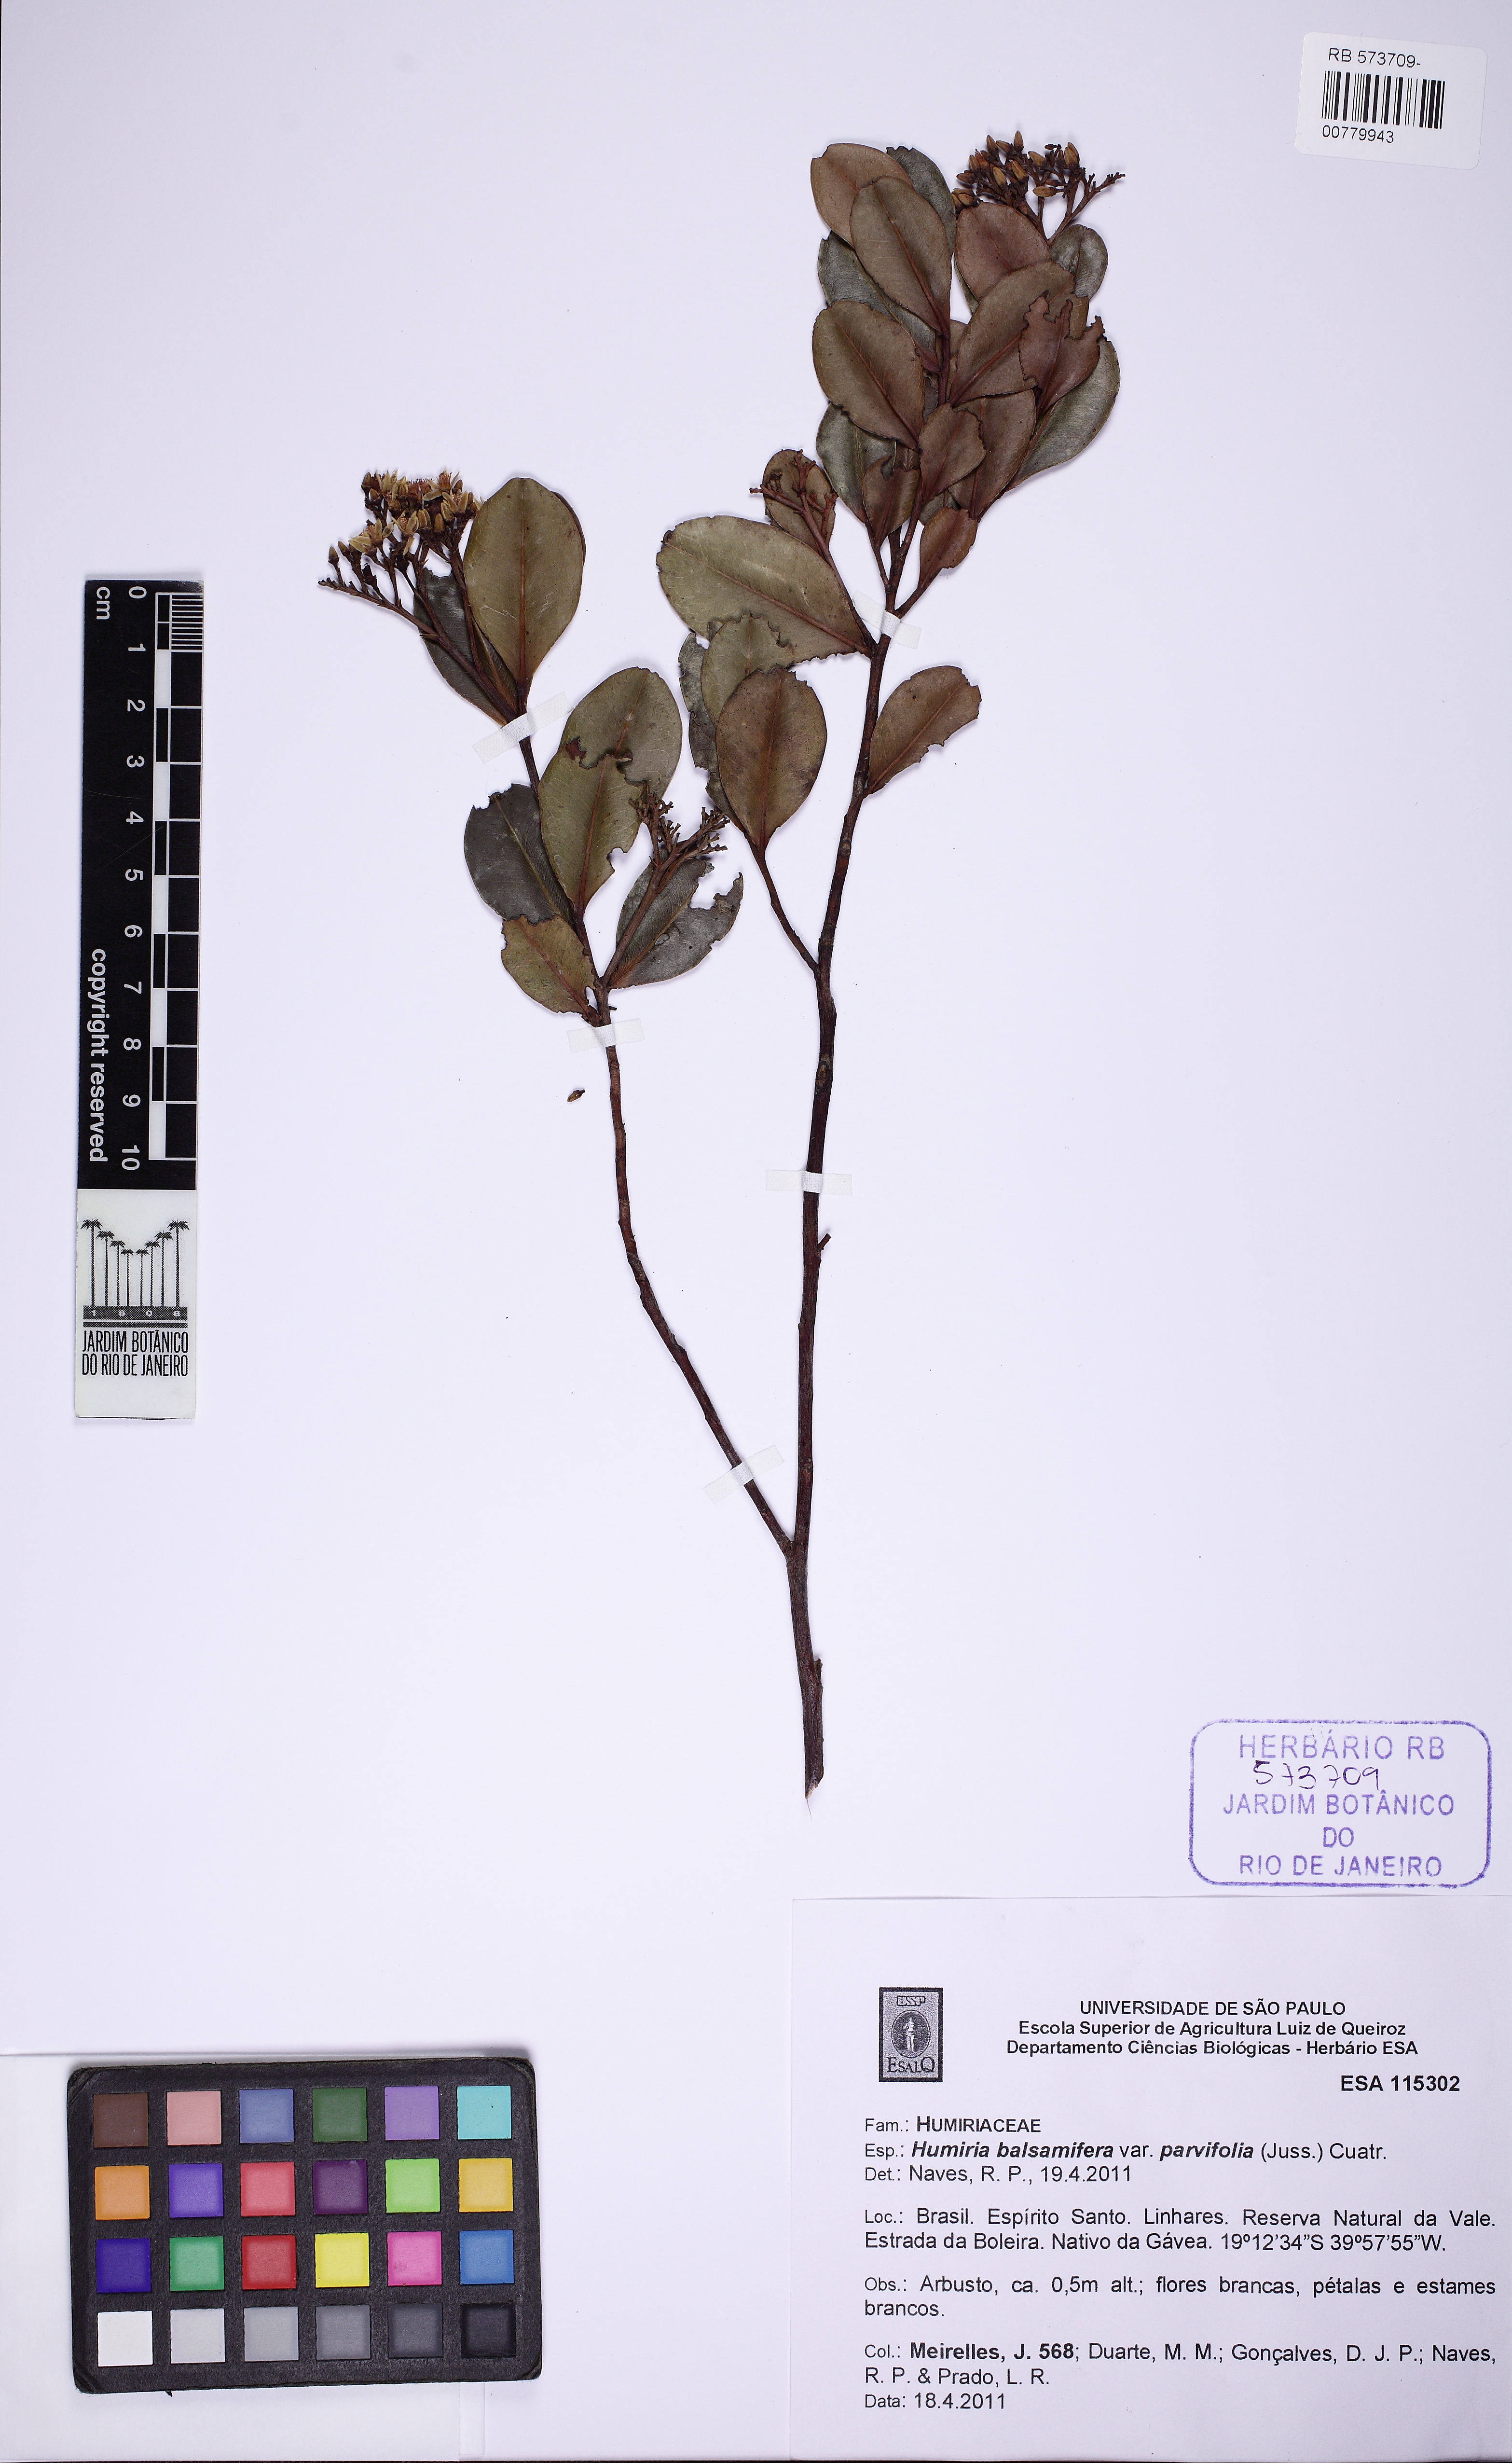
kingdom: Plantae
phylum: Tracheophyta
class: Magnoliopsida
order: Malpighiales
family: Humiriaceae
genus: Humiria
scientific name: Humiria parvifolia
